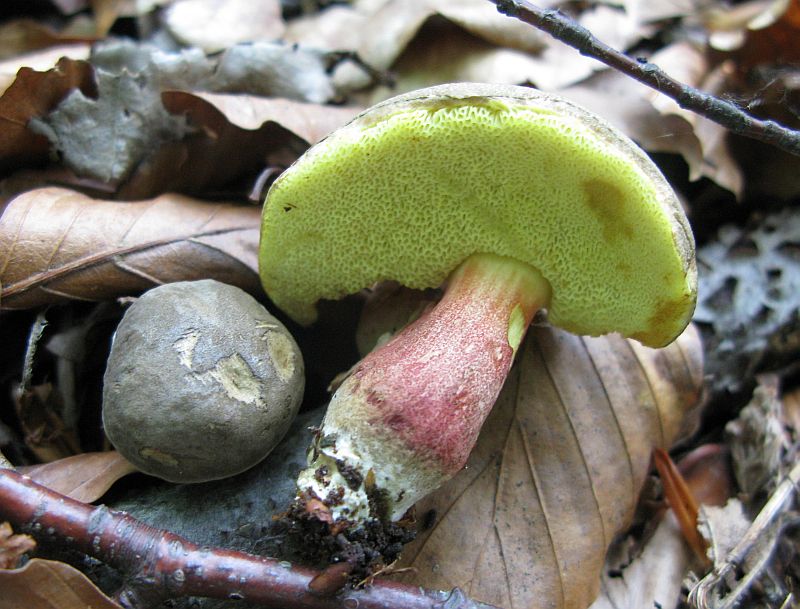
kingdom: Fungi
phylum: Basidiomycota
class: Agaricomycetes
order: Boletales
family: Boletaceae
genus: Xerocomellus
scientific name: Xerocomellus chrysenteron
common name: rødsprukken rørhat
